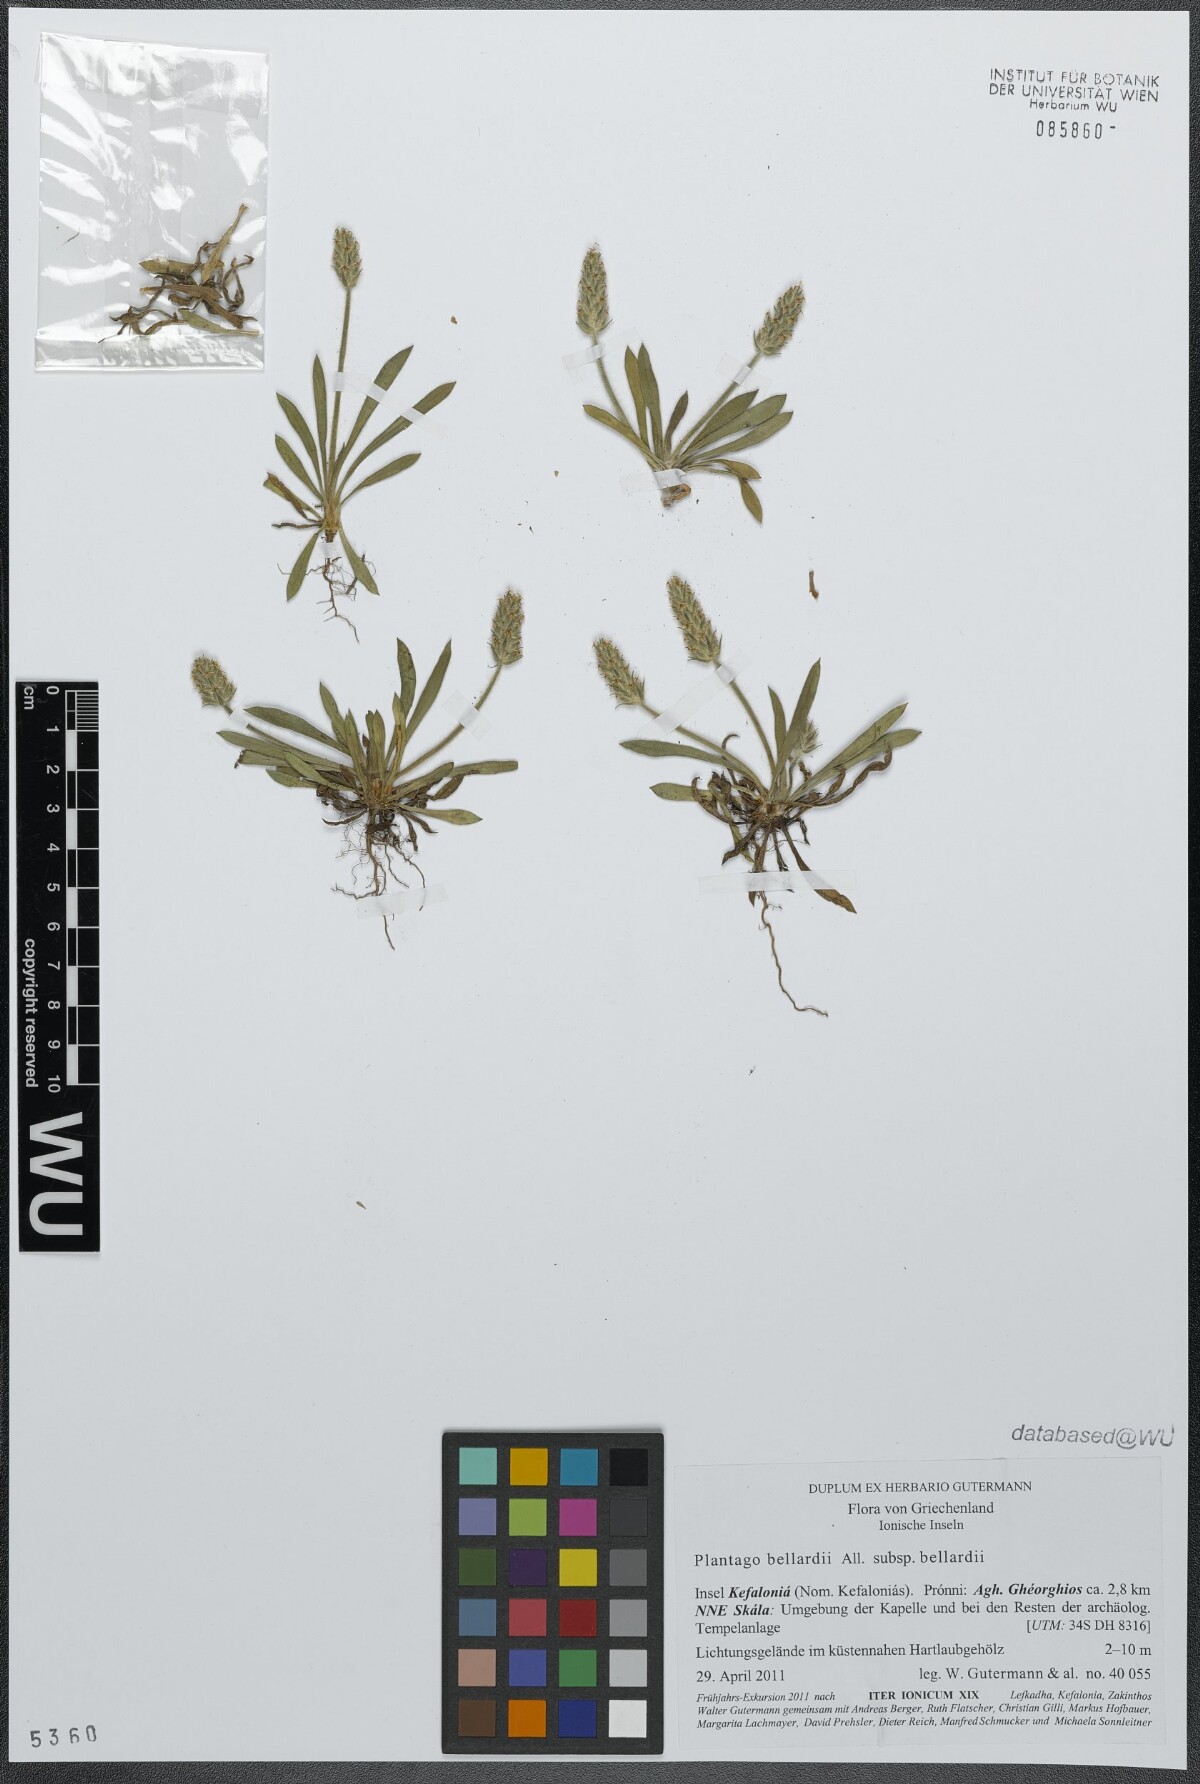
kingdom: Plantae
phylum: Tracheophyta
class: Magnoliopsida
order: Lamiales
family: Plantaginaceae
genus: Plantago
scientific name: Plantago bellardii
